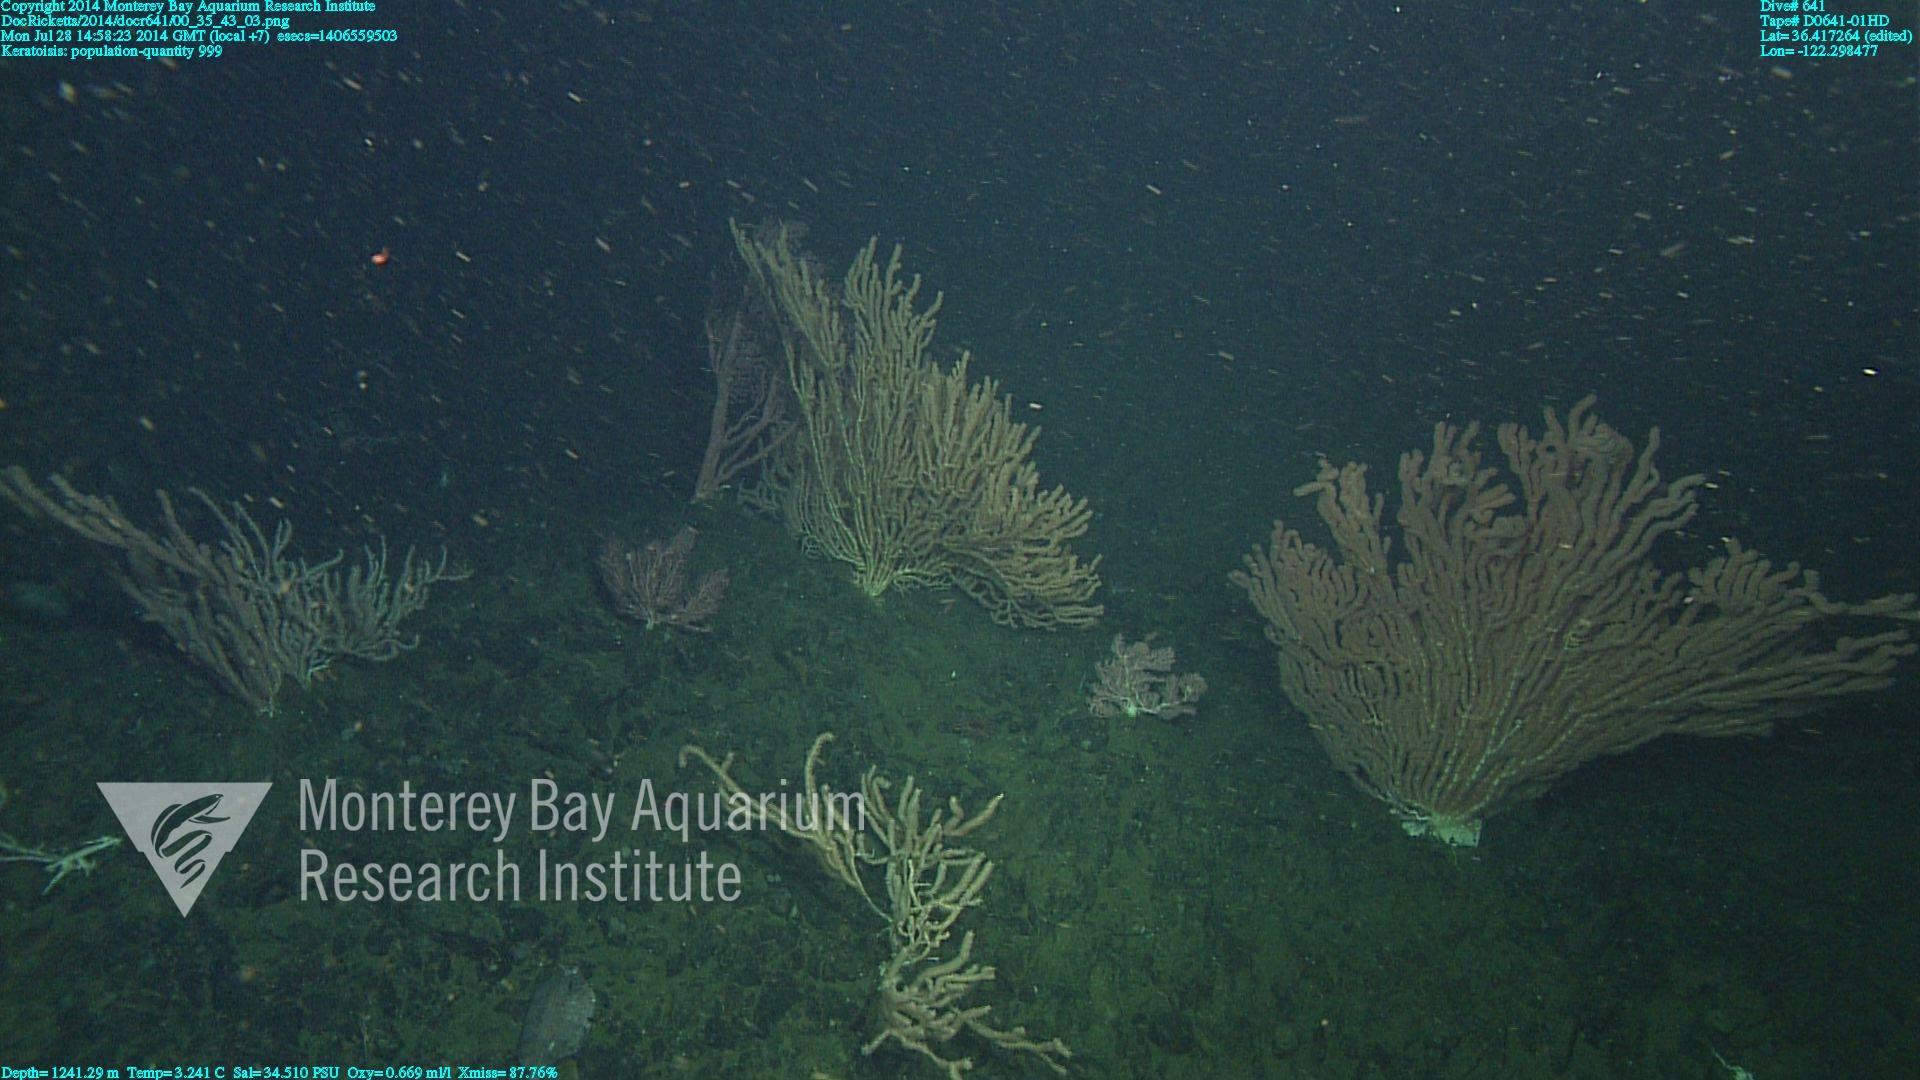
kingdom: Animalia
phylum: Cnidaria
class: Anthozoa
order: Scleralcyonacea
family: Keratoisididae
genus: Keratoisis
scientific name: Keratoisis
